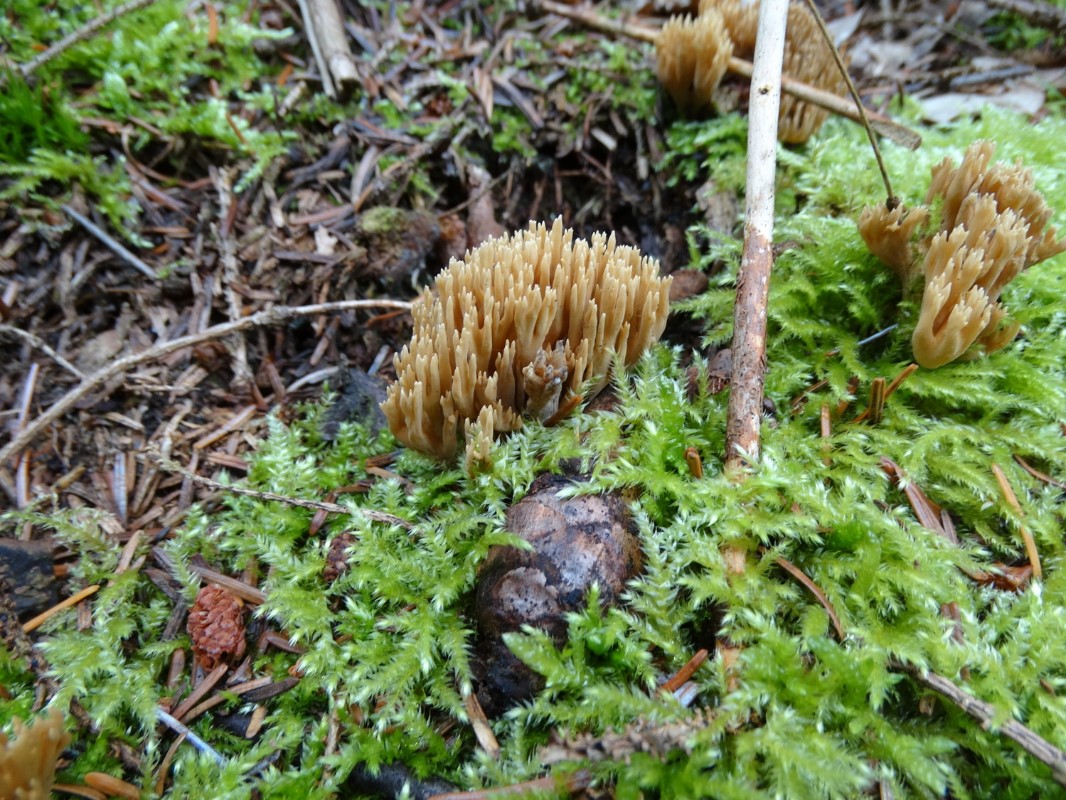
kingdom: Fungi
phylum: Basidiomycota
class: Agaricomycetes
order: Gomphales
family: Gomphaceae
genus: Phaeoclavulina
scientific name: Phaeoclavulina eumorpha
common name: gran-koralsvamp
